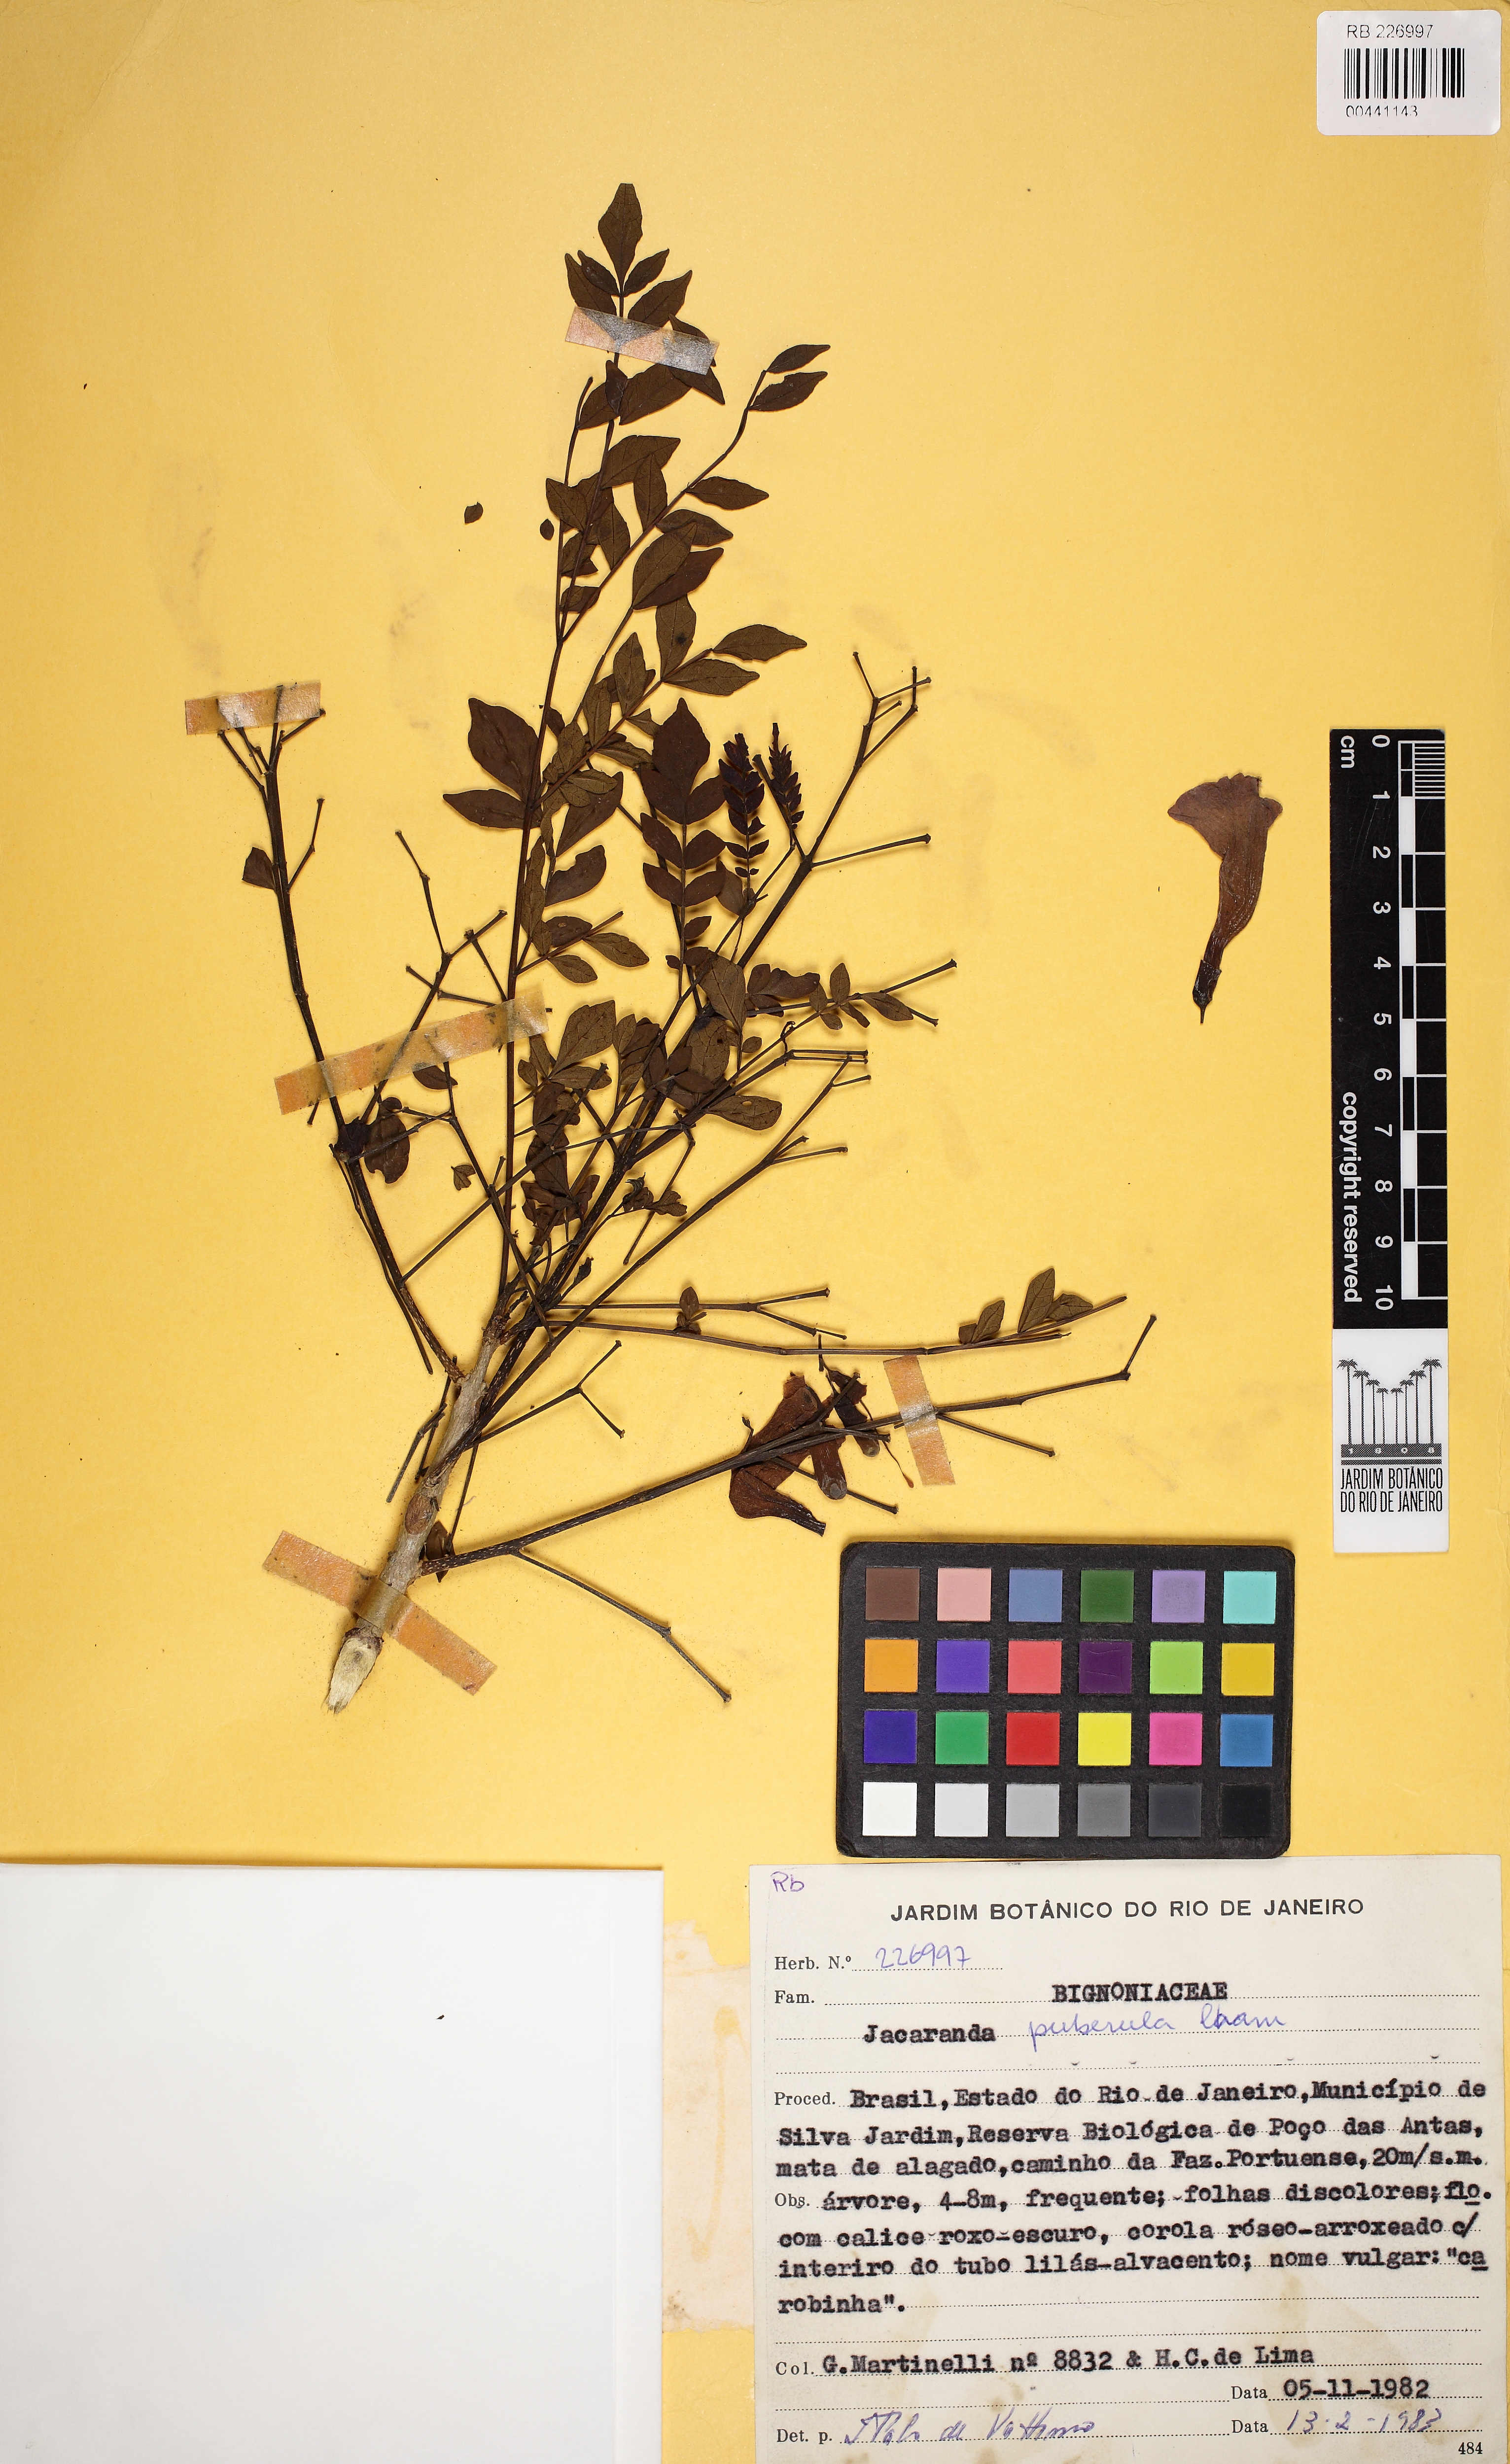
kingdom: Plantae
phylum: Tracheophyta
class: Magnoliopsida
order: Lamiales
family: Bignoniaceae
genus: Jacaranda
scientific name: Jacaranda puberula
